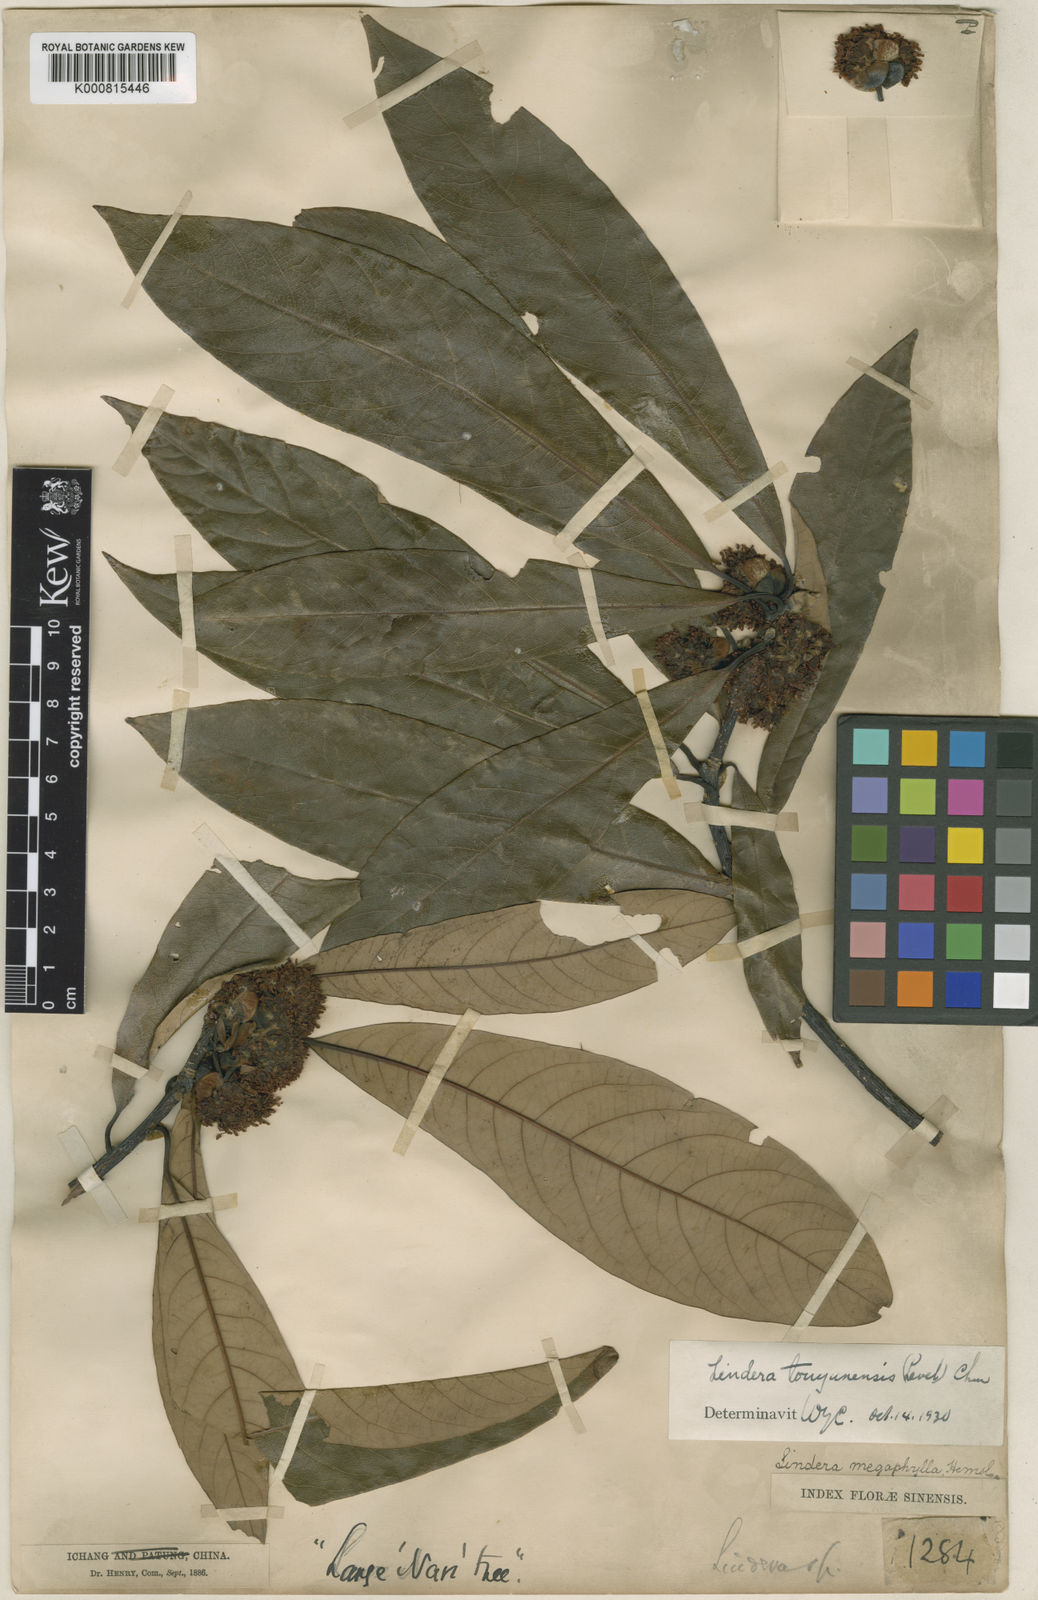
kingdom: Plantae
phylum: Tracheophyta
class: Magnoliopsida
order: Laurales
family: Lauraceae
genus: Lindera
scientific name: Lindera megaphylla
